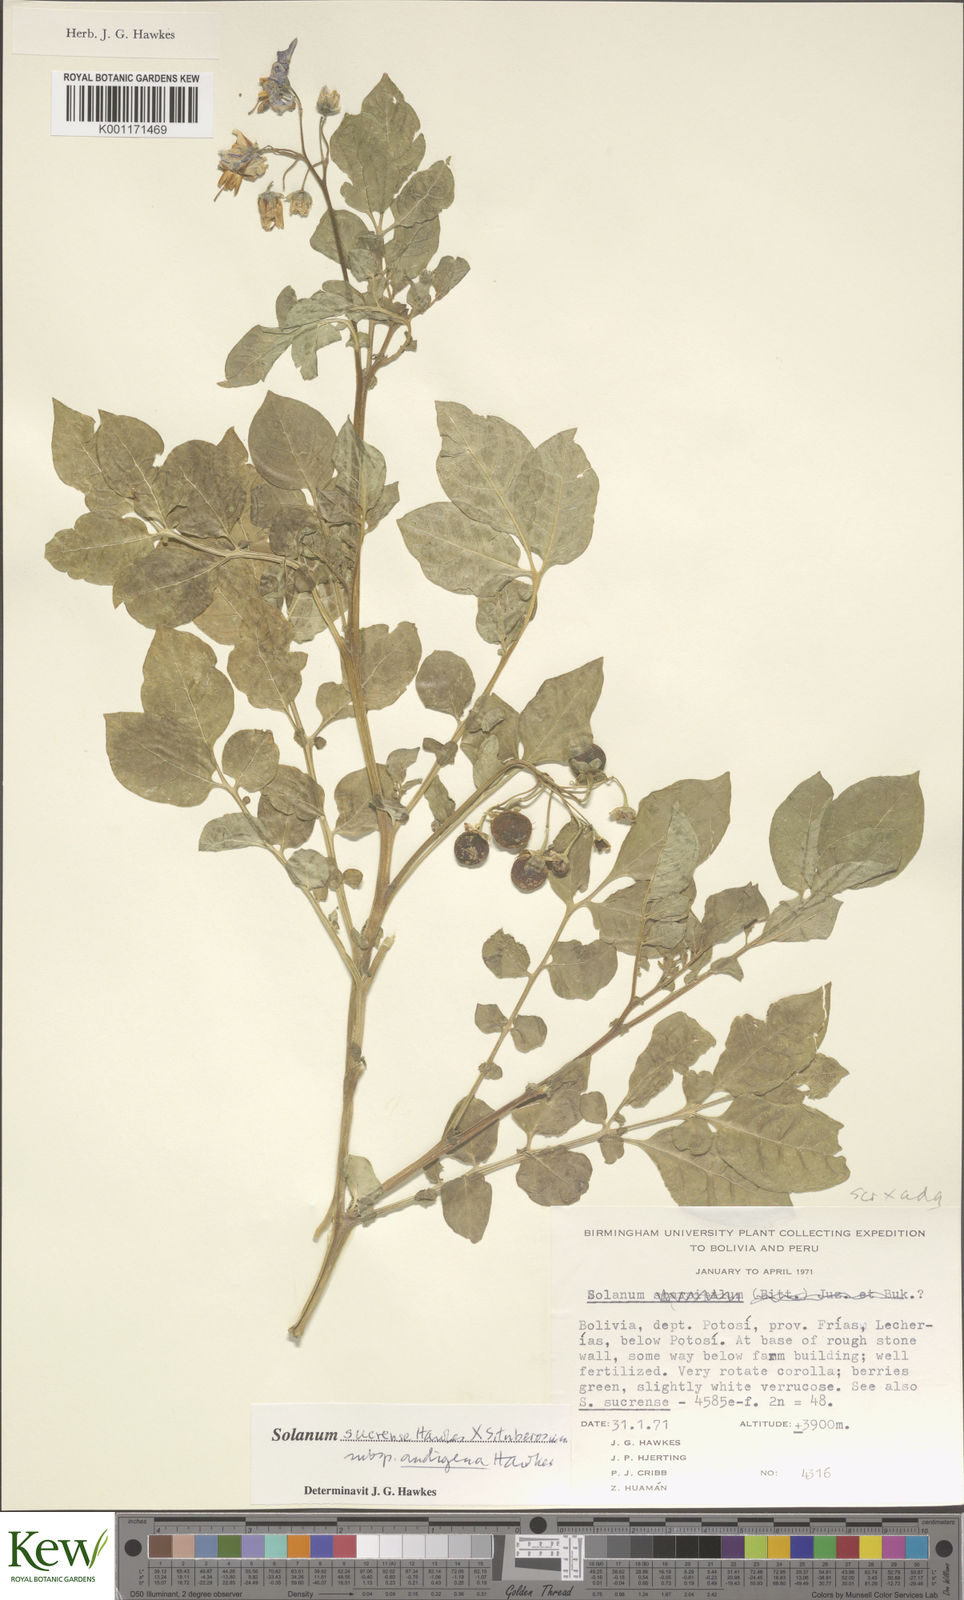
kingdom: Plantae
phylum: Tracheophyta
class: Magnoliopsida
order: Solanales
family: Solanaceae
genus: Solanum
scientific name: Solanum tuberosum
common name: Potato
